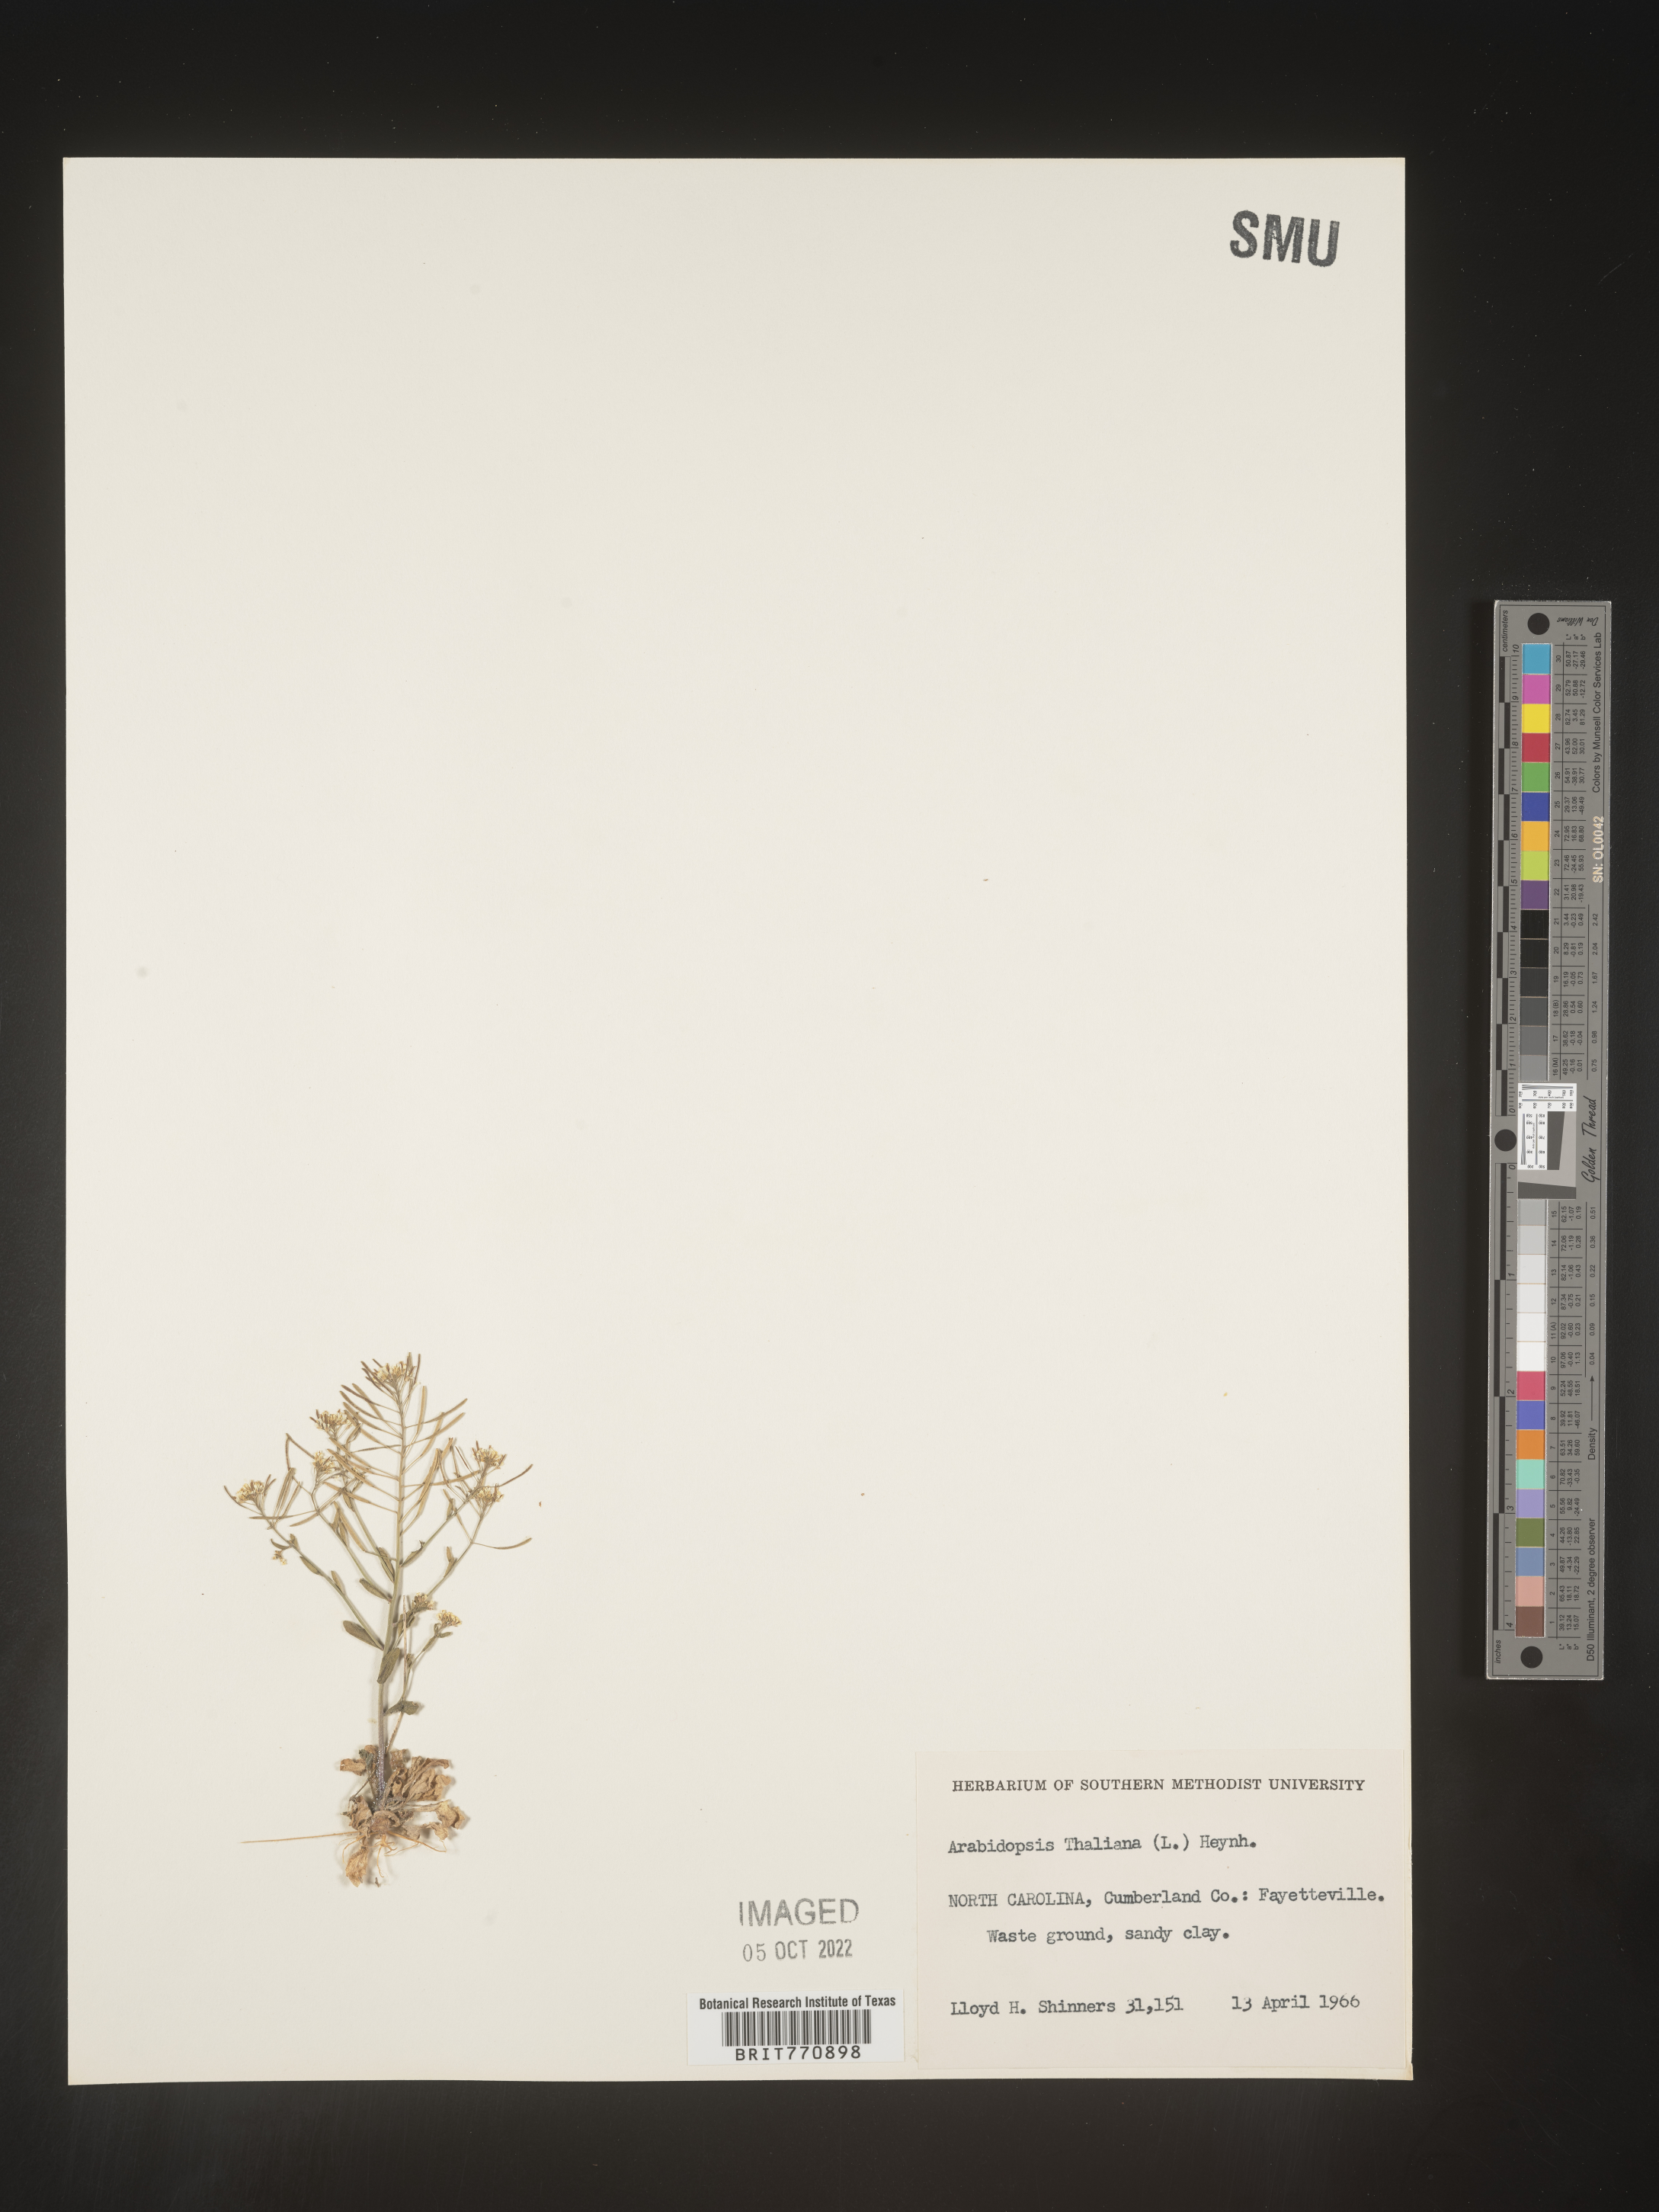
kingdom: Plantae
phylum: Tracheophyta
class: Magnoliopsida
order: Brassicales
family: Brassicaceae
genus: Arabidopsis
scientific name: Arabidopsis thaliana
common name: Thale cress
